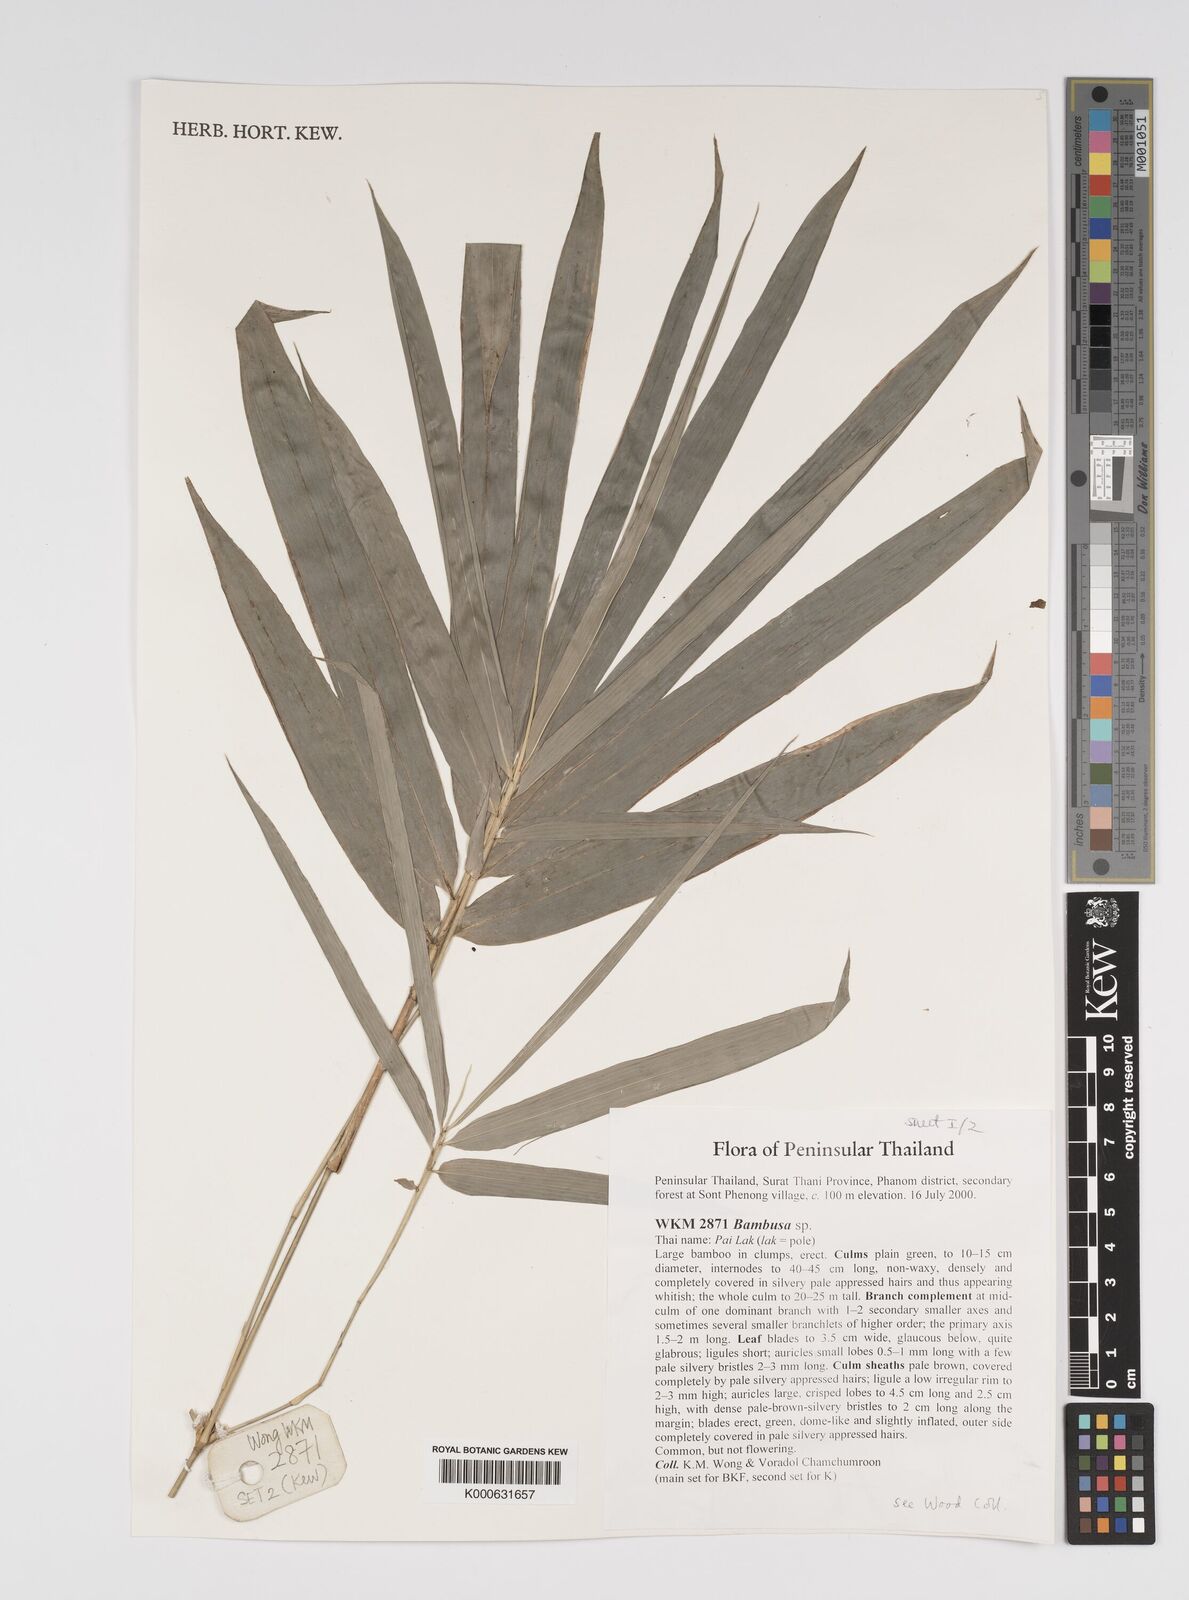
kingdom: Plantae
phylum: Tracheophyta
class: Liliopsida
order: Poales
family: Poaceae
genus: Bambusa
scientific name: Bambusa
